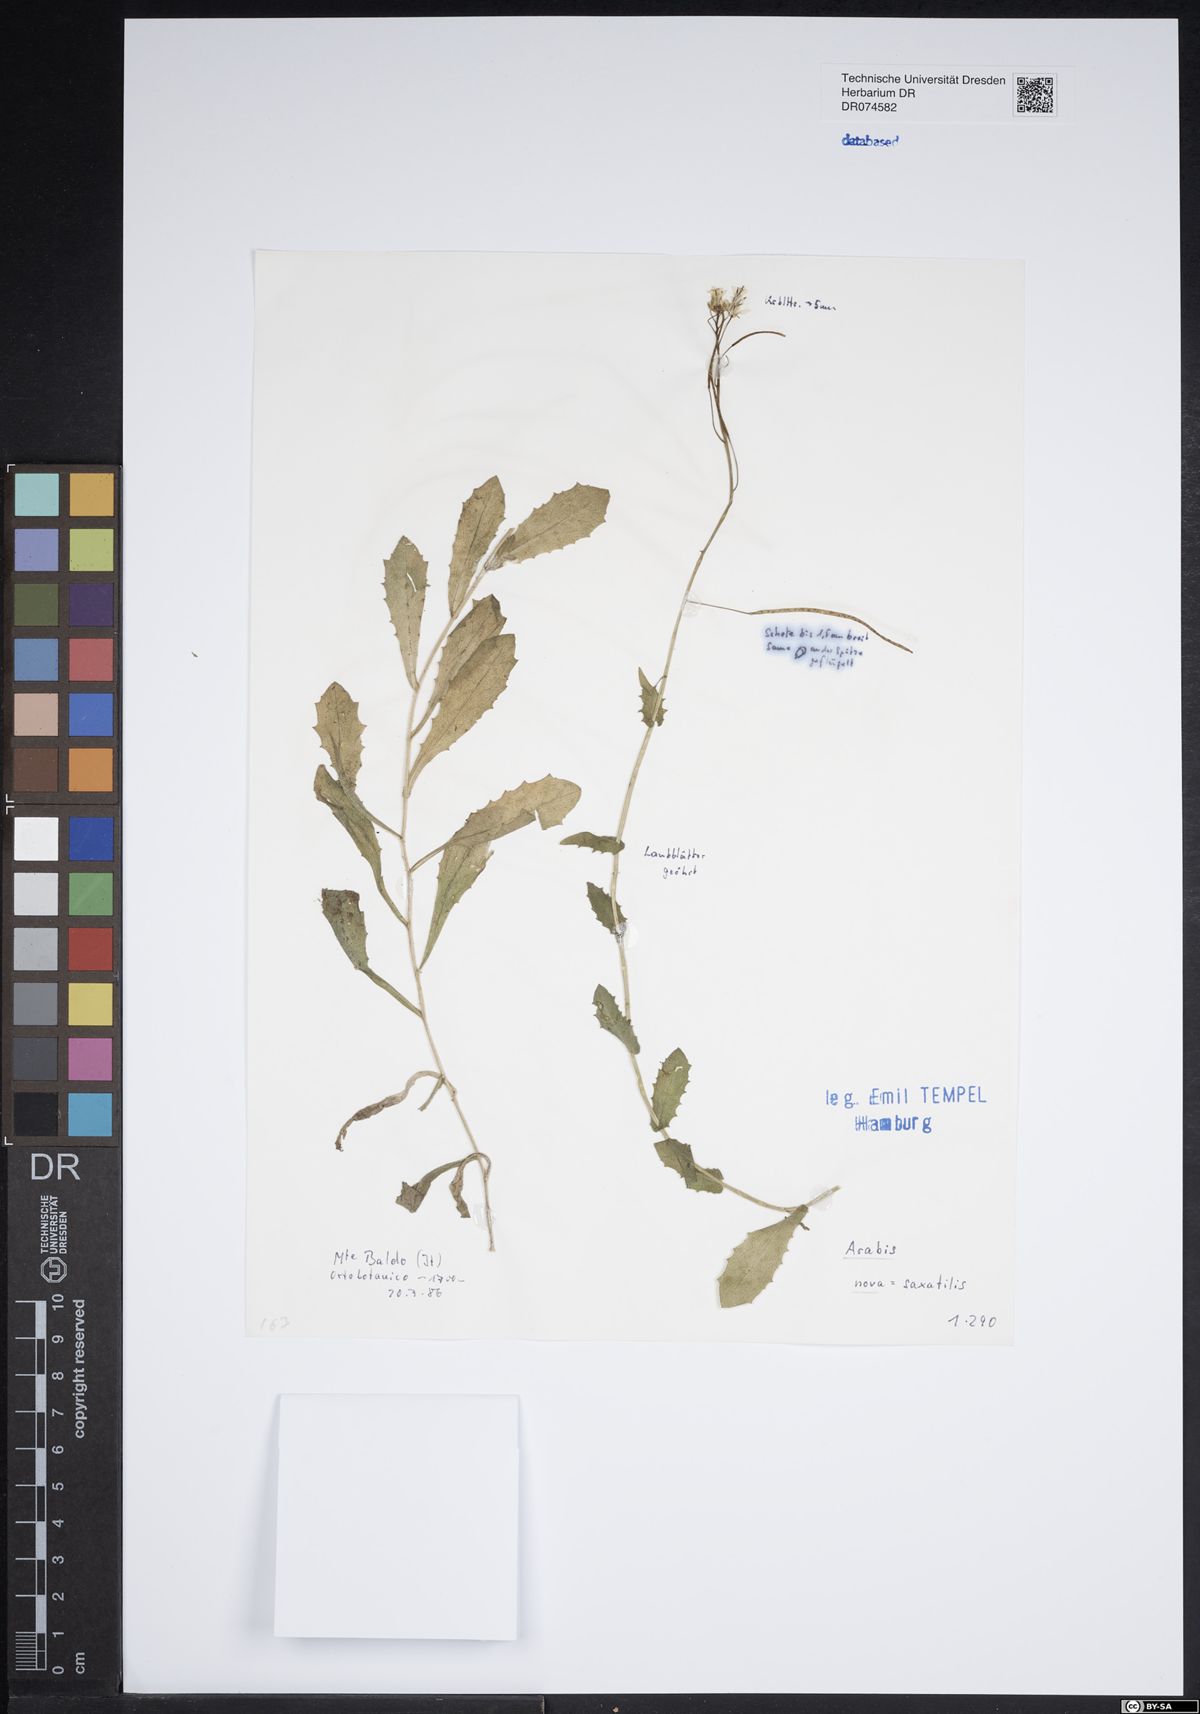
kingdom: Plantae
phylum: Tracheophyta
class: Magnoliopsida
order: Brassicales
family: Brassicaceae
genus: Arabis
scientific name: Arabis nova
